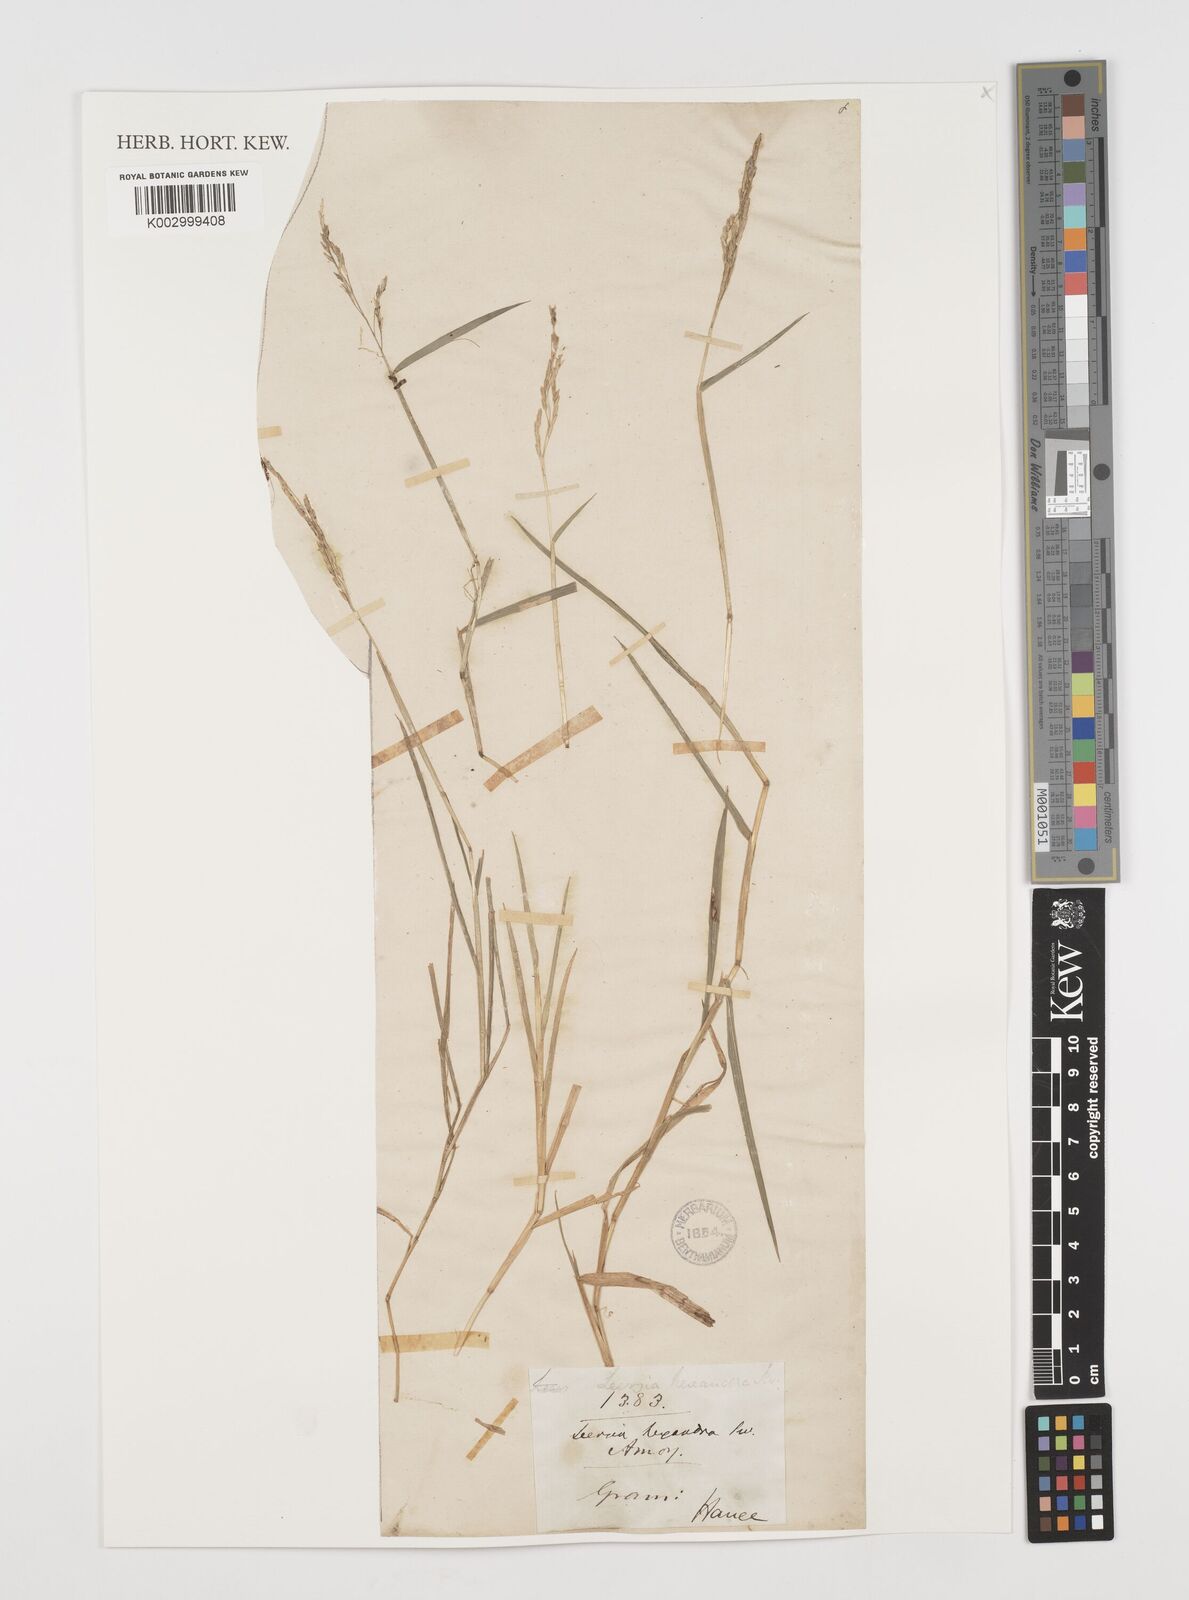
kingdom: Plantae
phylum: Tracheophyta
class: Liliopsida
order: Poales
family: Poaceae
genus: Leersia
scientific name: Leersia hexandra
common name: Southern cut grass
